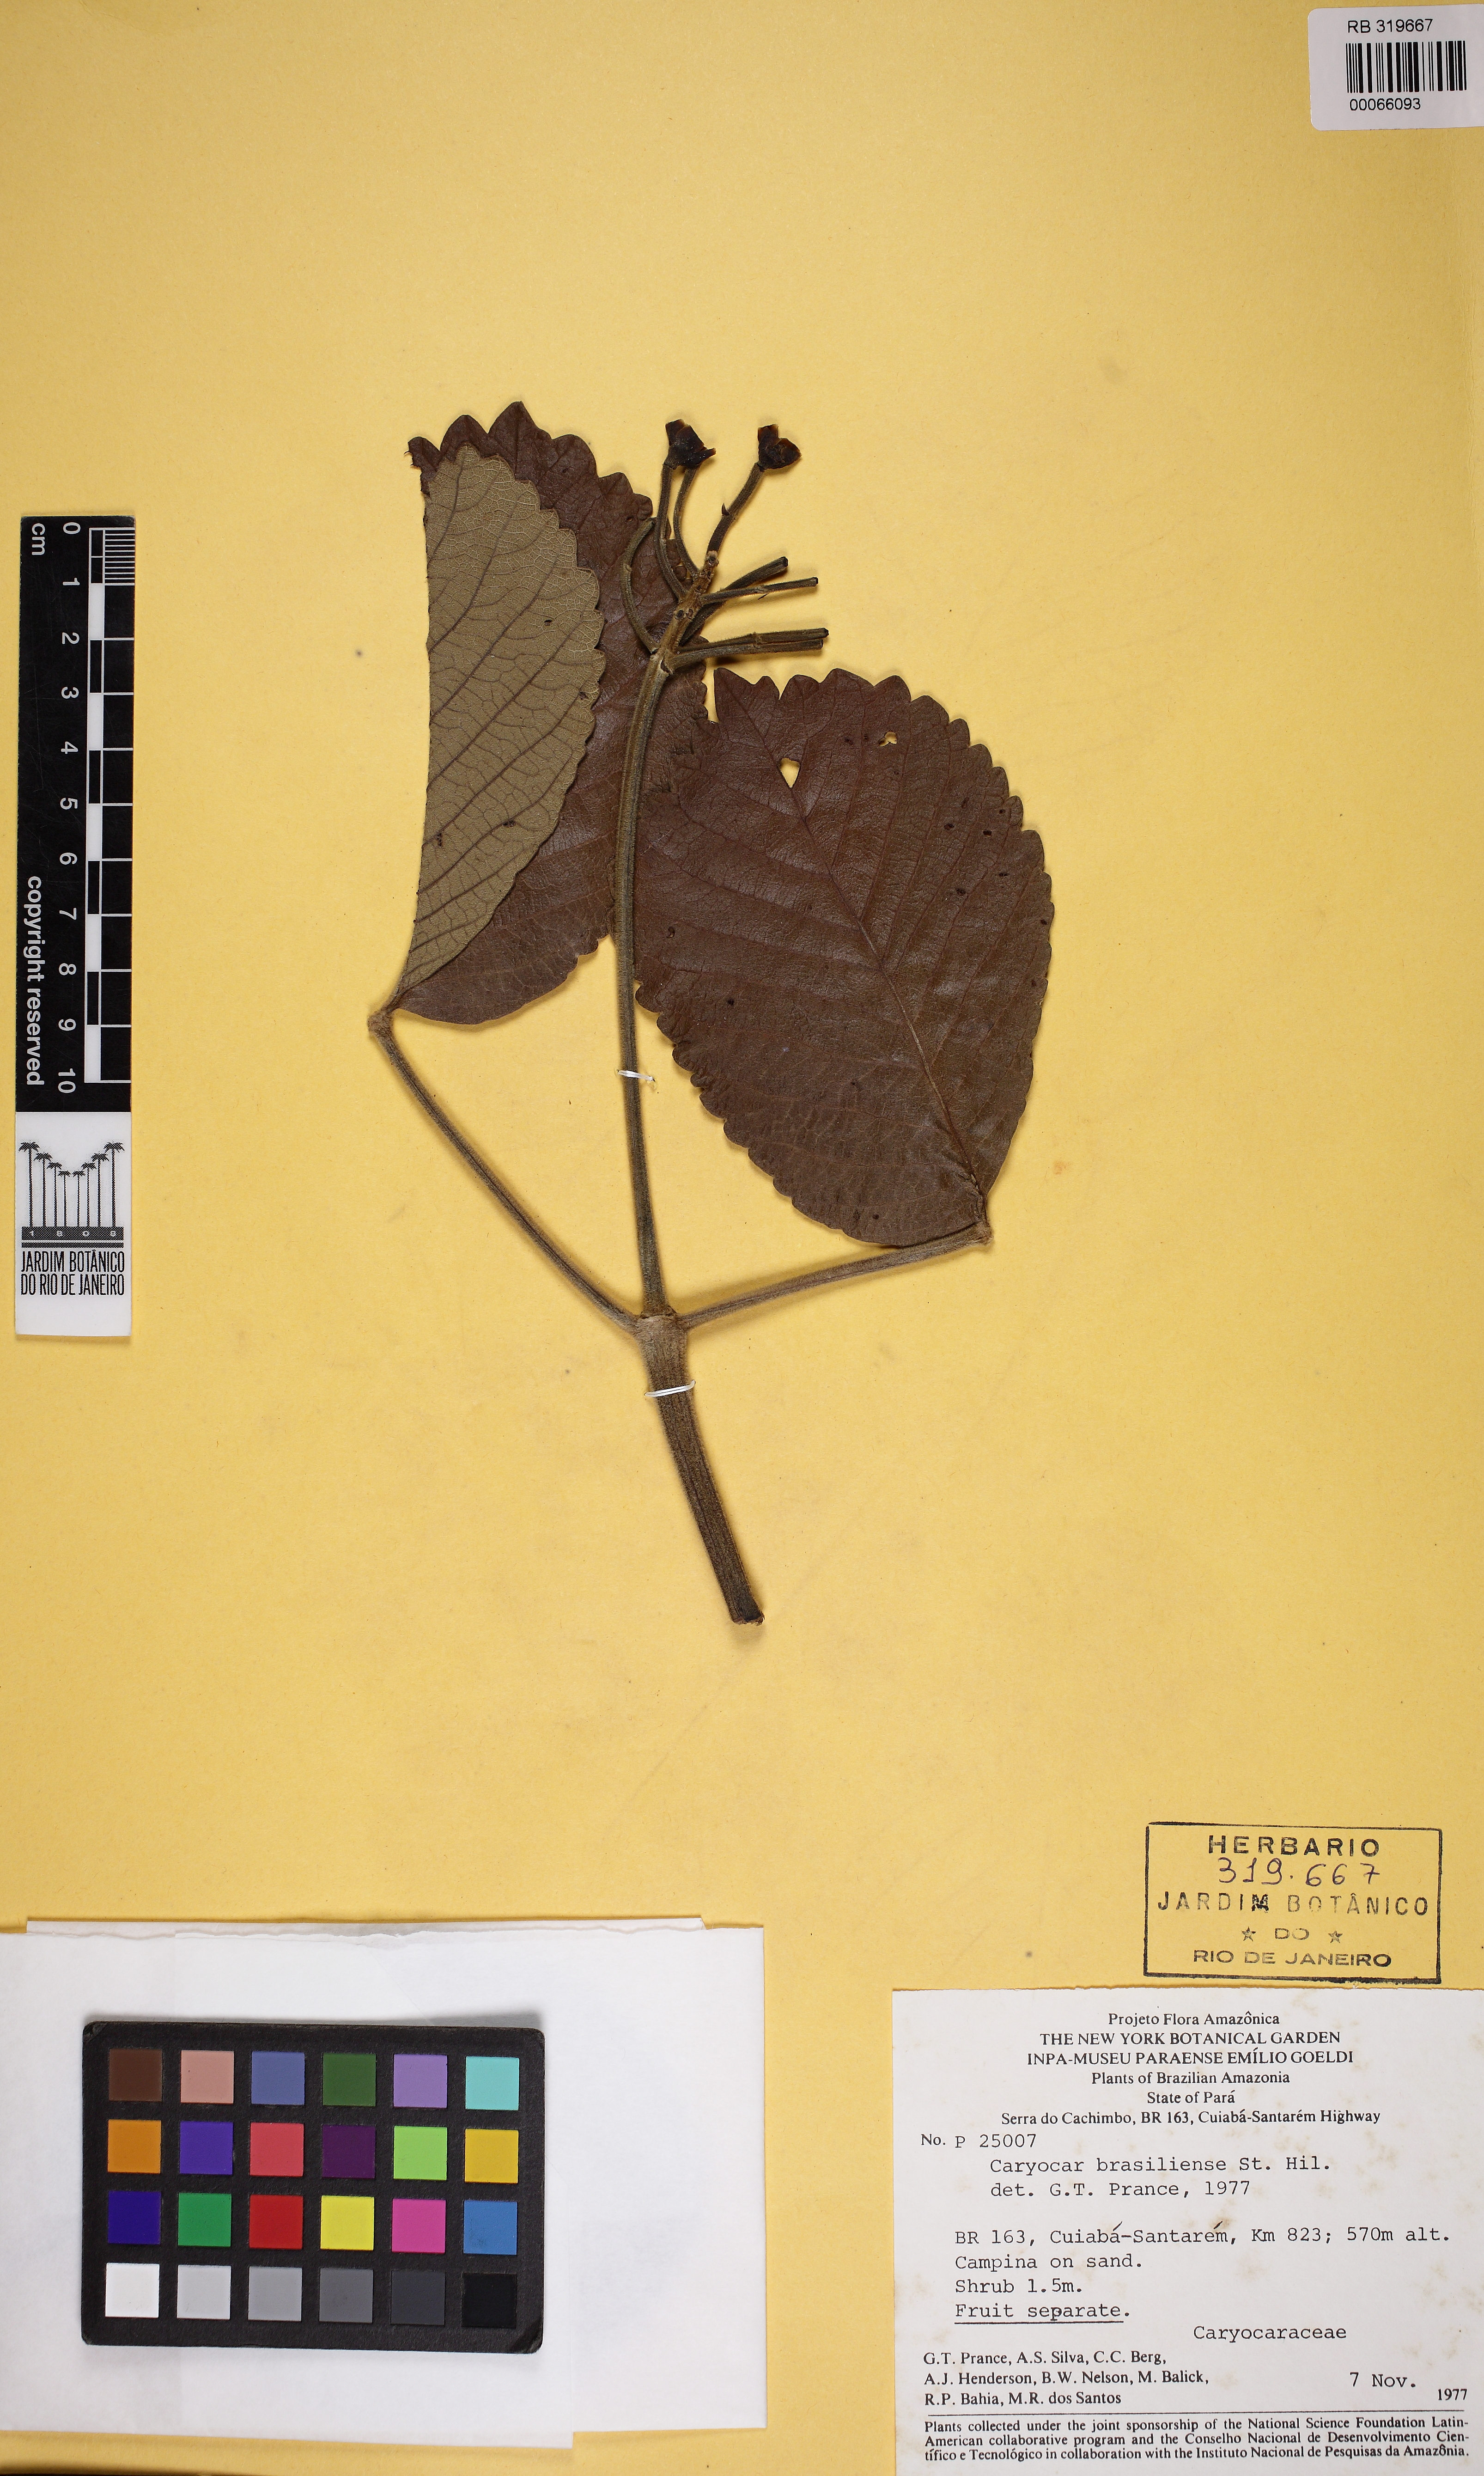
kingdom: Plantae
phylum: Tracheophyta
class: Magnoliopsida
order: Malpighiales
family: Caryocaraceae
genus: Caryocar
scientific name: Caryocar brasiliense
